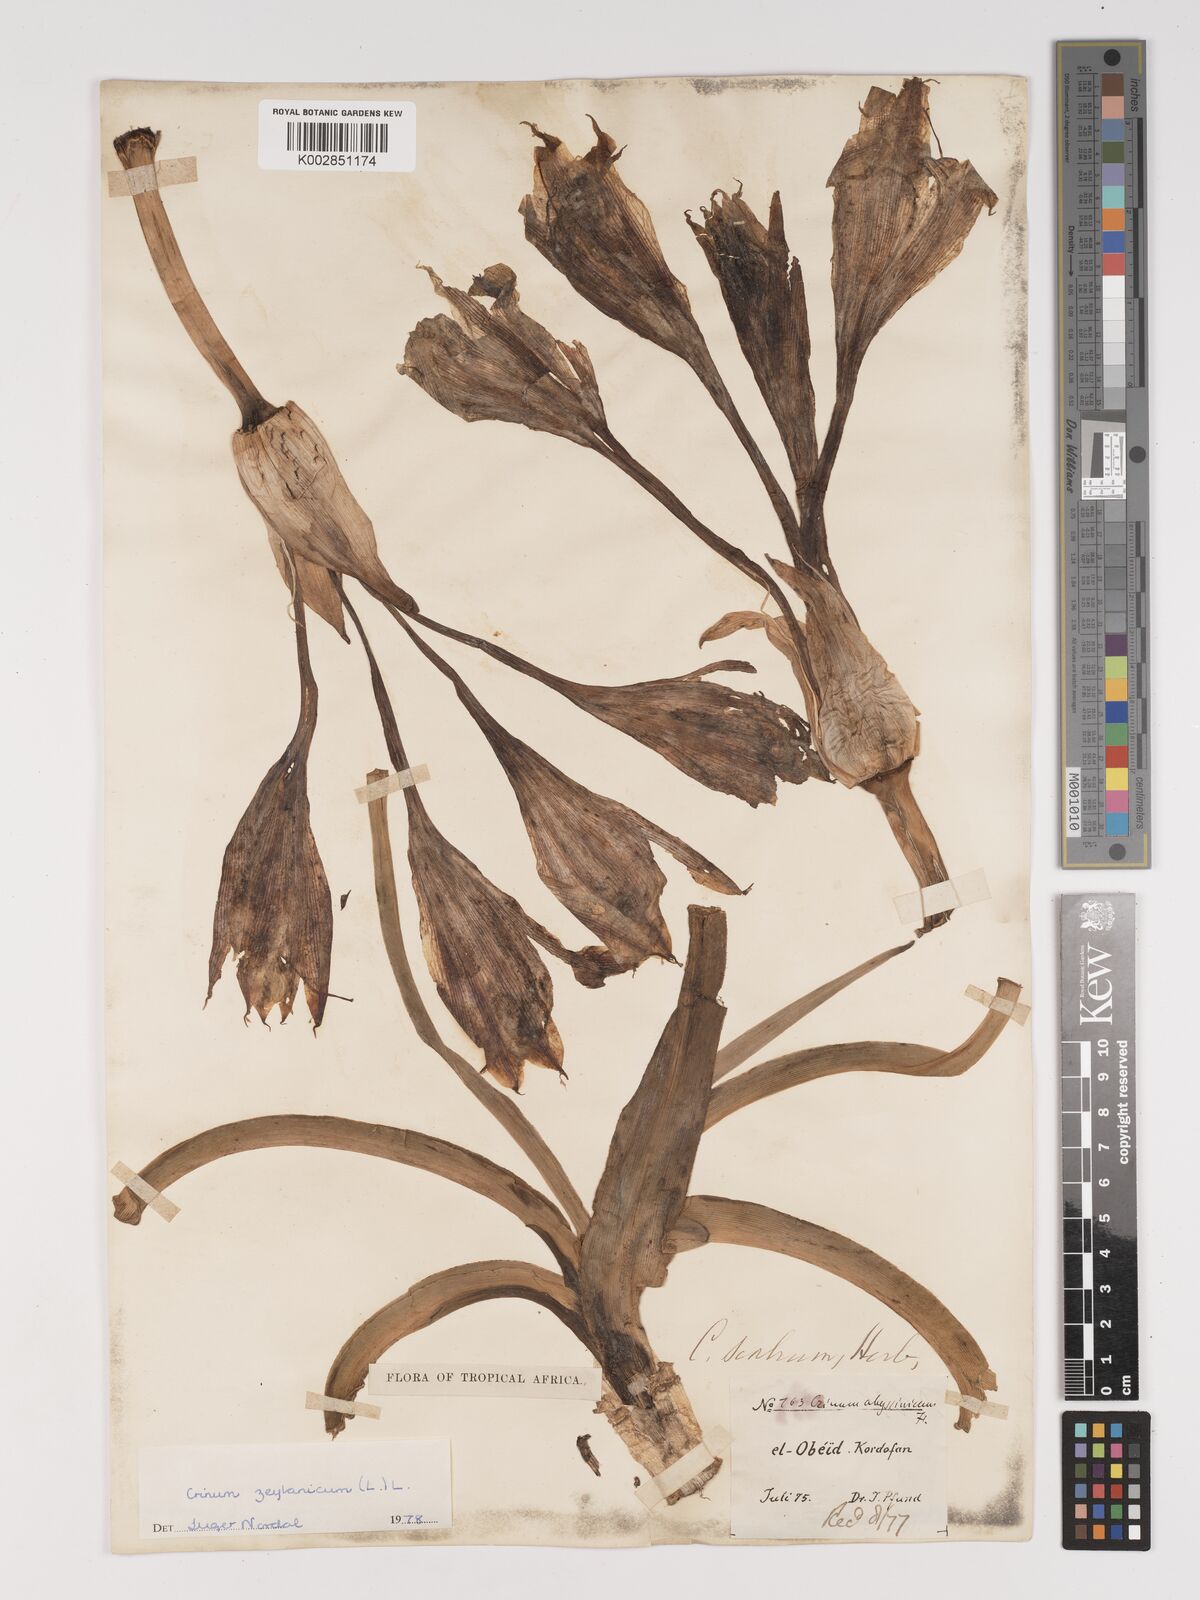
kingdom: Plantae
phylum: Tracheophyta
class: Liliopsida
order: Asparagales
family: Amaryllidaceae
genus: Crinum
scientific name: Crinum zeylanicum
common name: Ceylon swamplily
